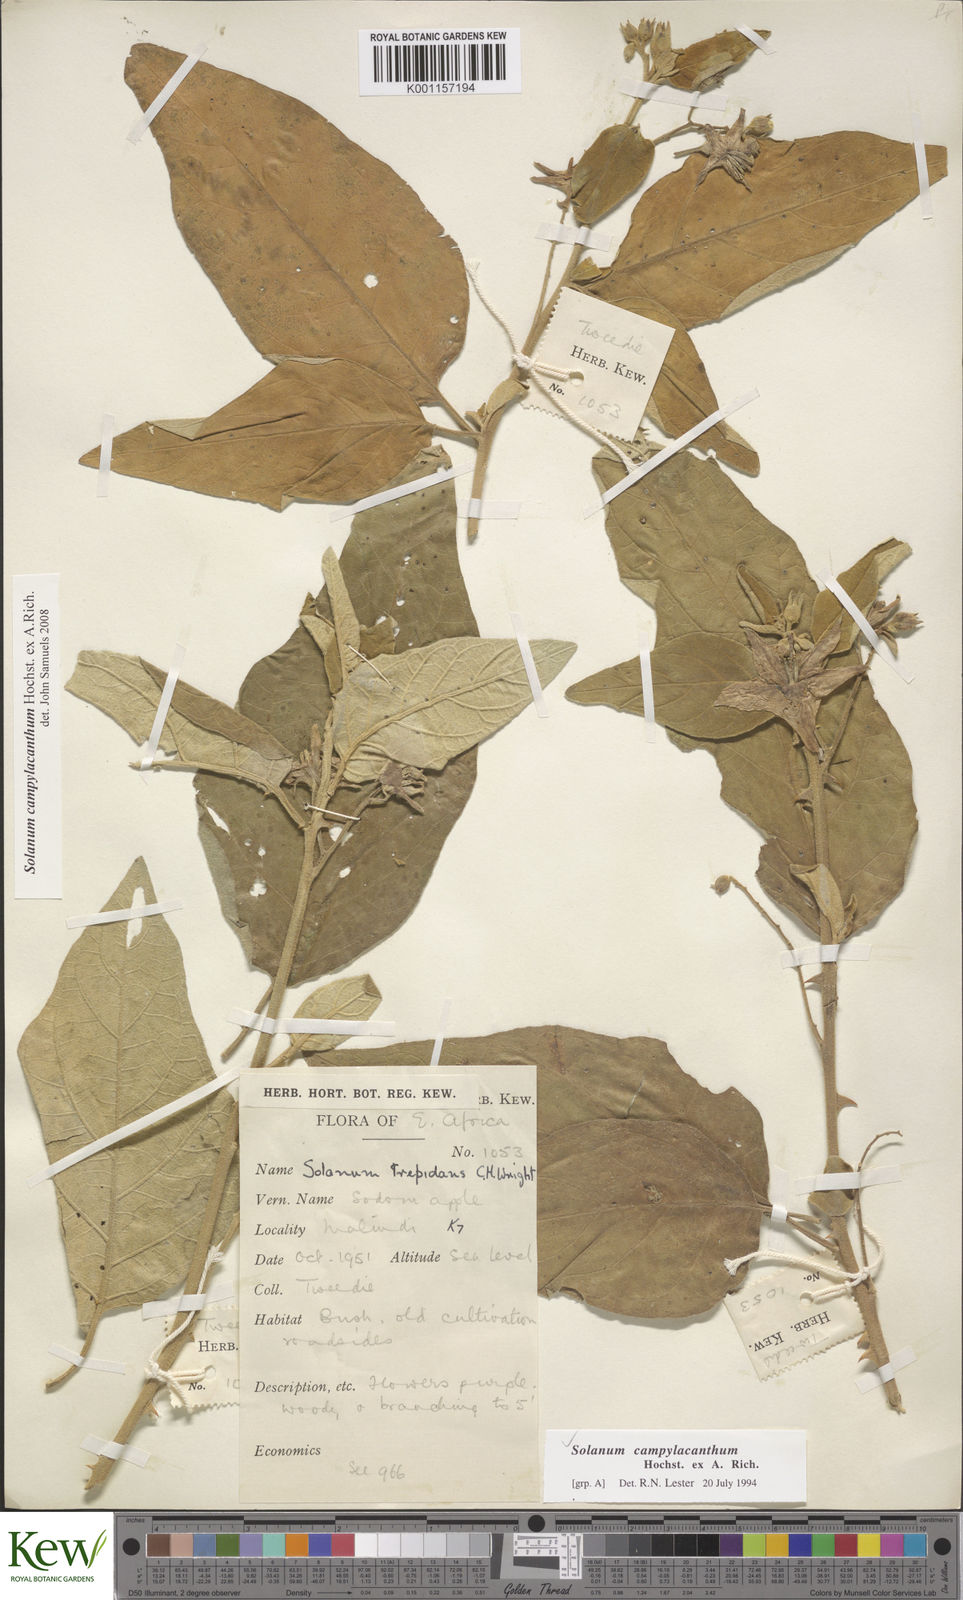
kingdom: Plantae
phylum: Tracheophyta
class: Magnoliopsida
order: Solanales
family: Solanaceae
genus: Solanum
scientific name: Solanum campylacanthum
